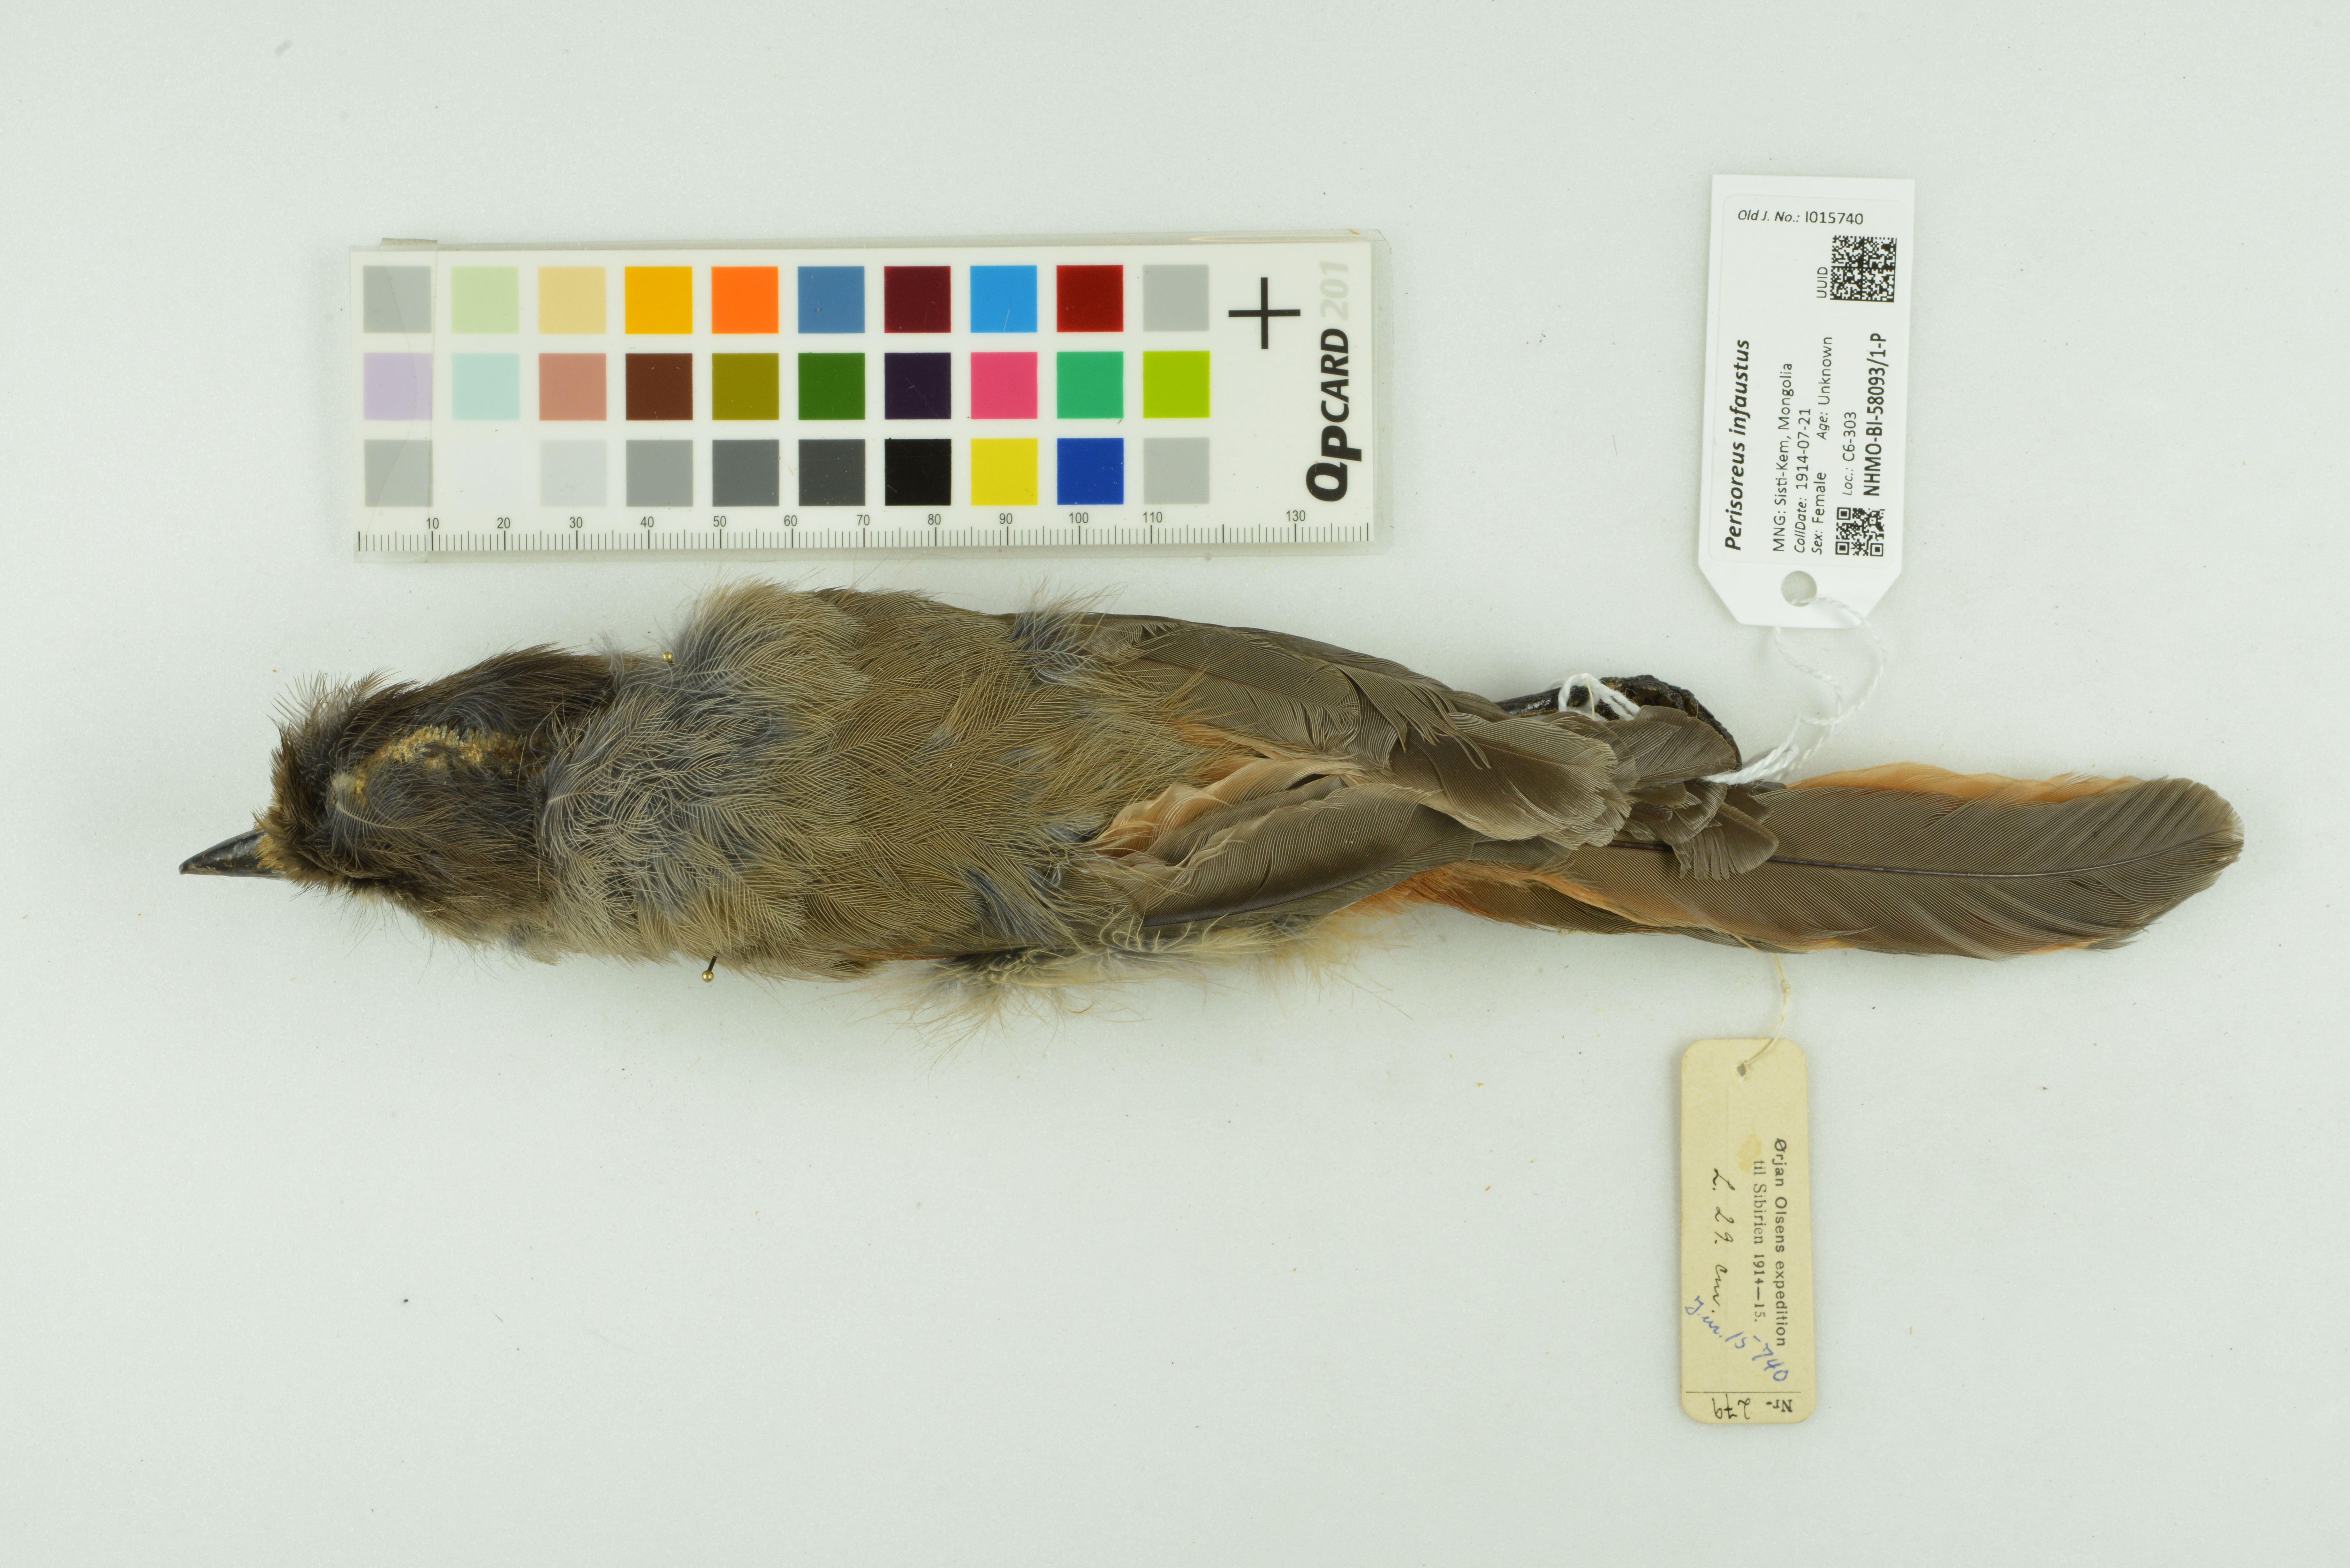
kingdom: Animalia
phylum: Chordata
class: Aves
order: Passeriformes
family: Corvidae
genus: Perisoreus
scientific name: Perisoreus infaustus
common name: Siberian jay
